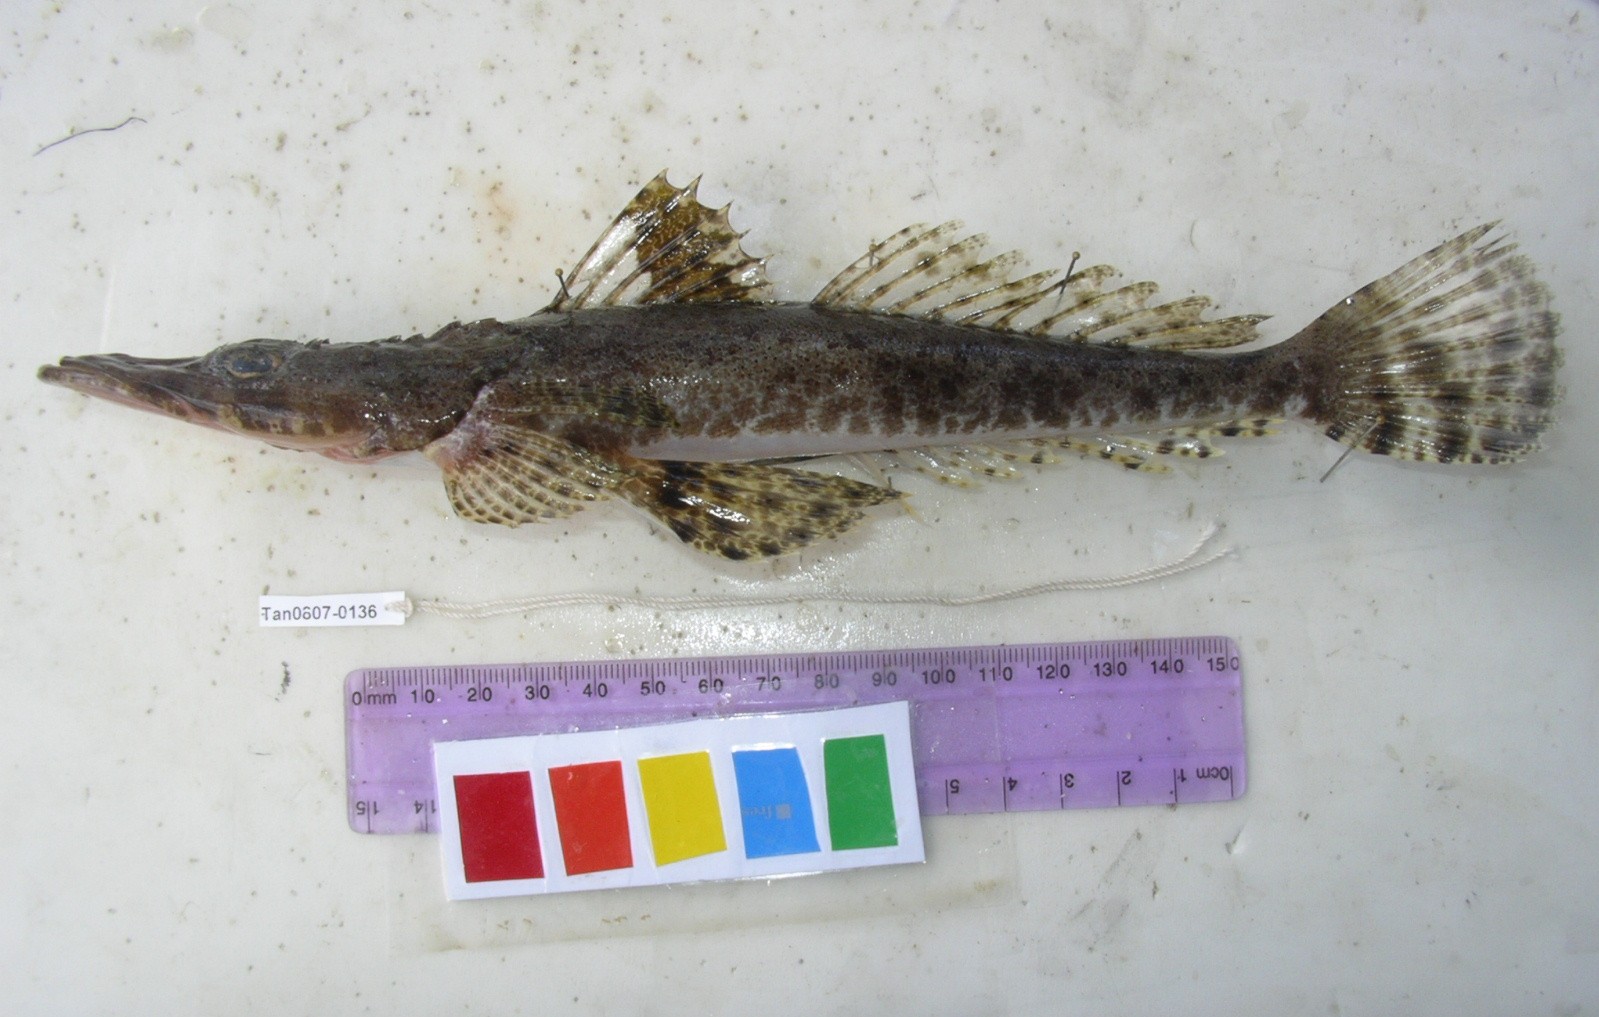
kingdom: Animalia
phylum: Chordata
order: Scorpaeniformes
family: Platycephalidae
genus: Papilloculiceps
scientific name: Papilloculiceps longiceps
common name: Tentacled flathead
